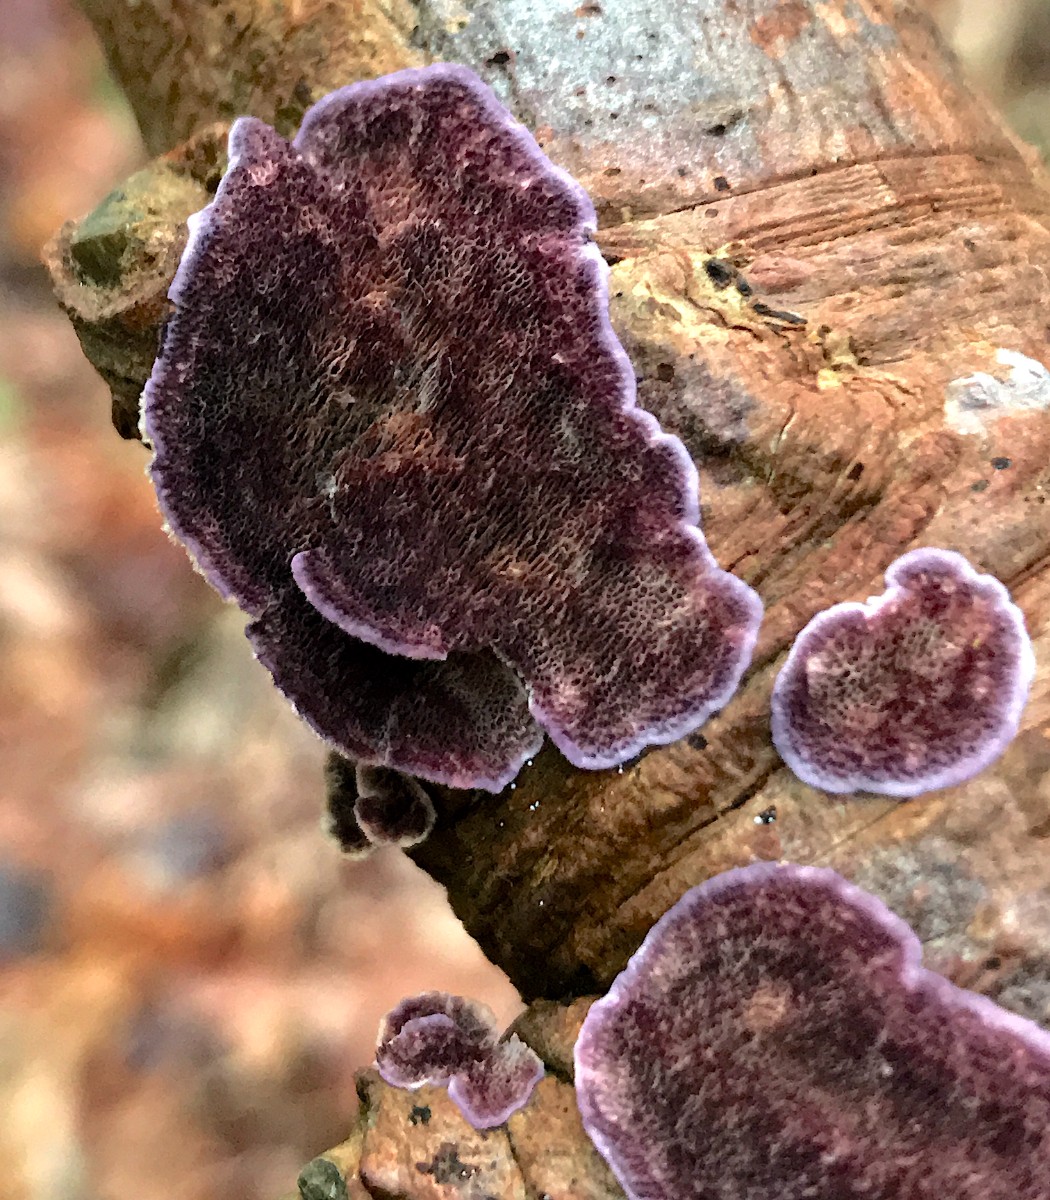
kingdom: Fungi
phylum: Basidiomycota
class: Agaricomycetes
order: Hymenochaetales
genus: Trichaptum
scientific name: Trichaptum abietinum
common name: almindelig violporesvamp
